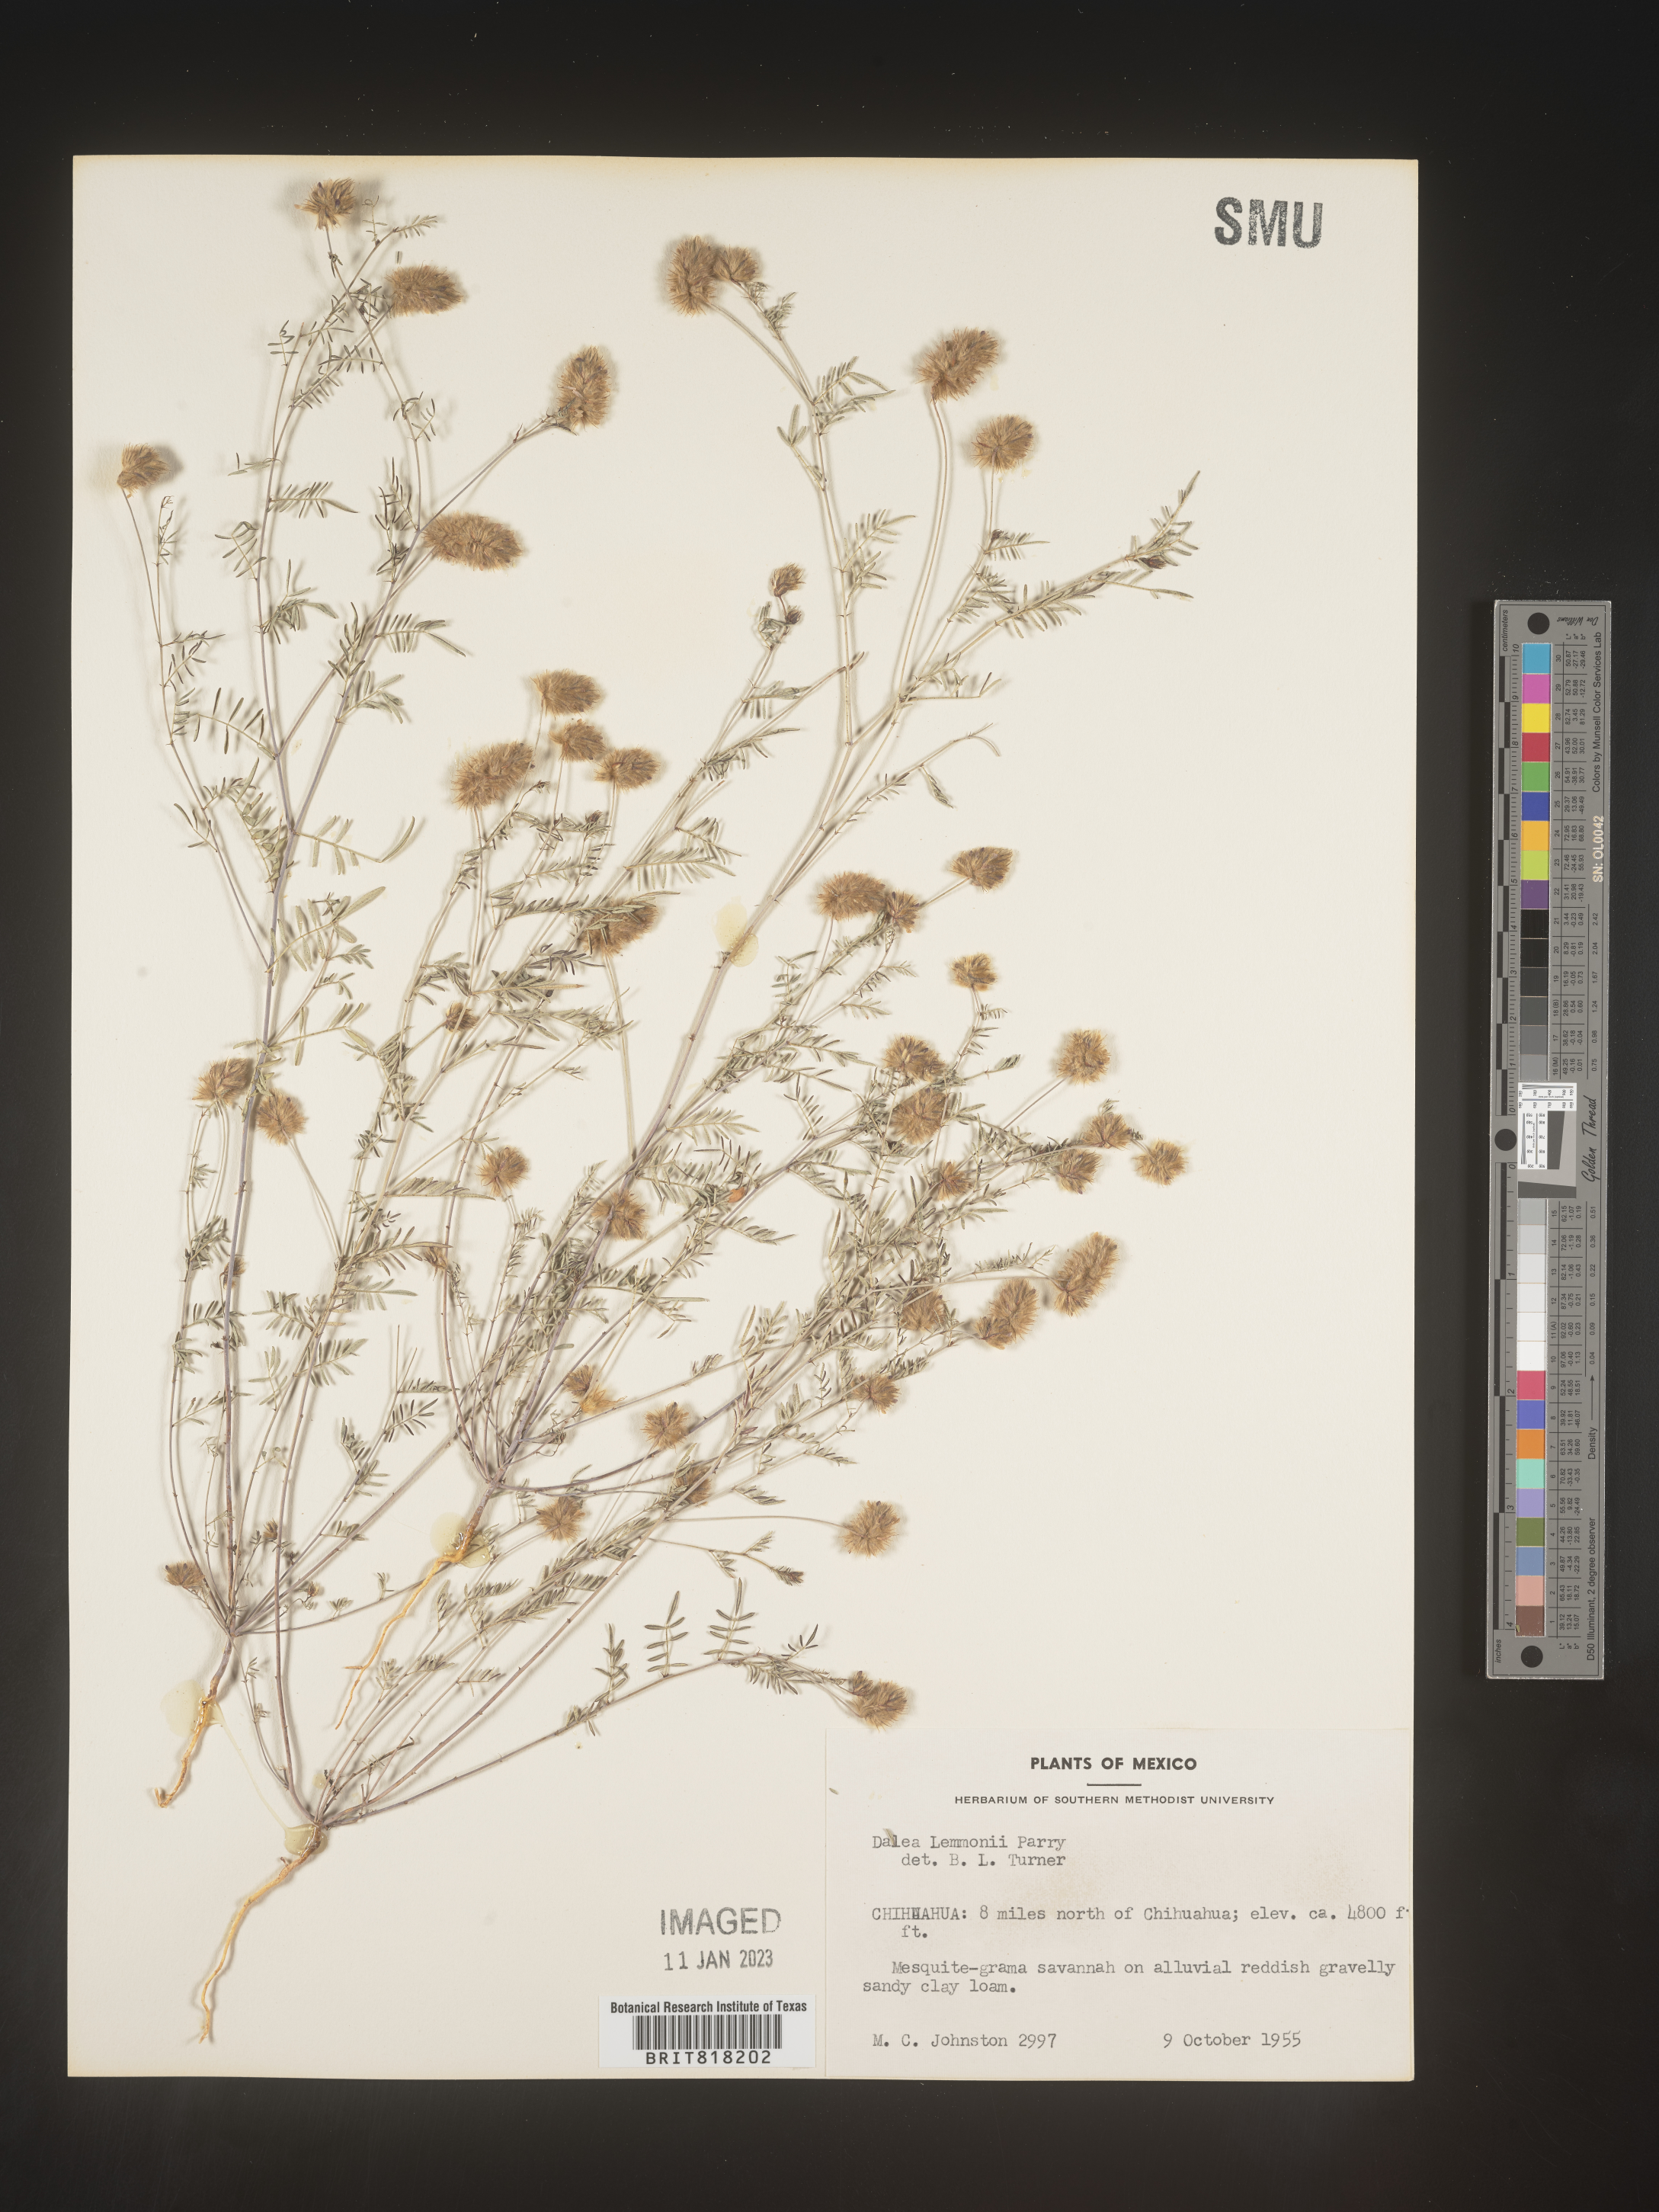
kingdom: Plantae
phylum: Tracheophyta
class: Magnoliopsida
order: Fabales
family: Fabaceae
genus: Dalea
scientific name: Dalea
